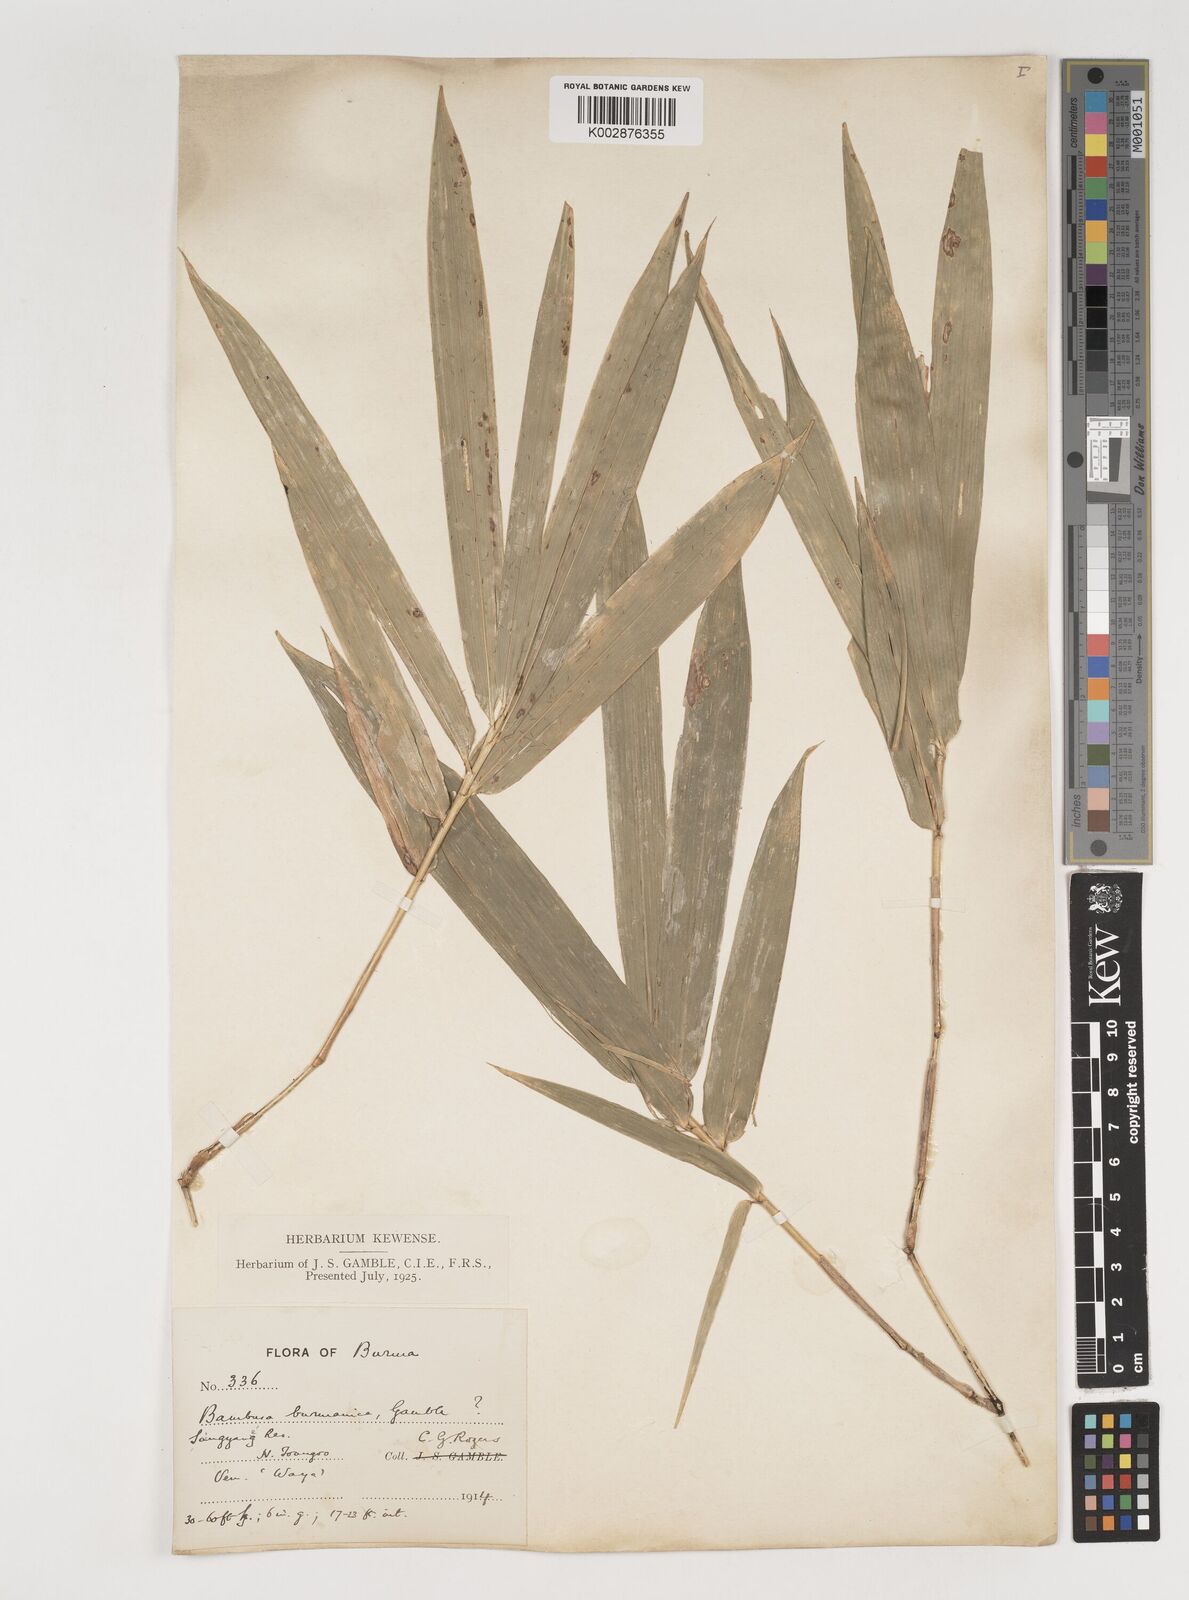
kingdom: Plantae
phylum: Tracheophyta
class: Liliopsida
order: Poales
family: Poaceae
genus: Bambusa
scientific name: Bambusa burmanica
